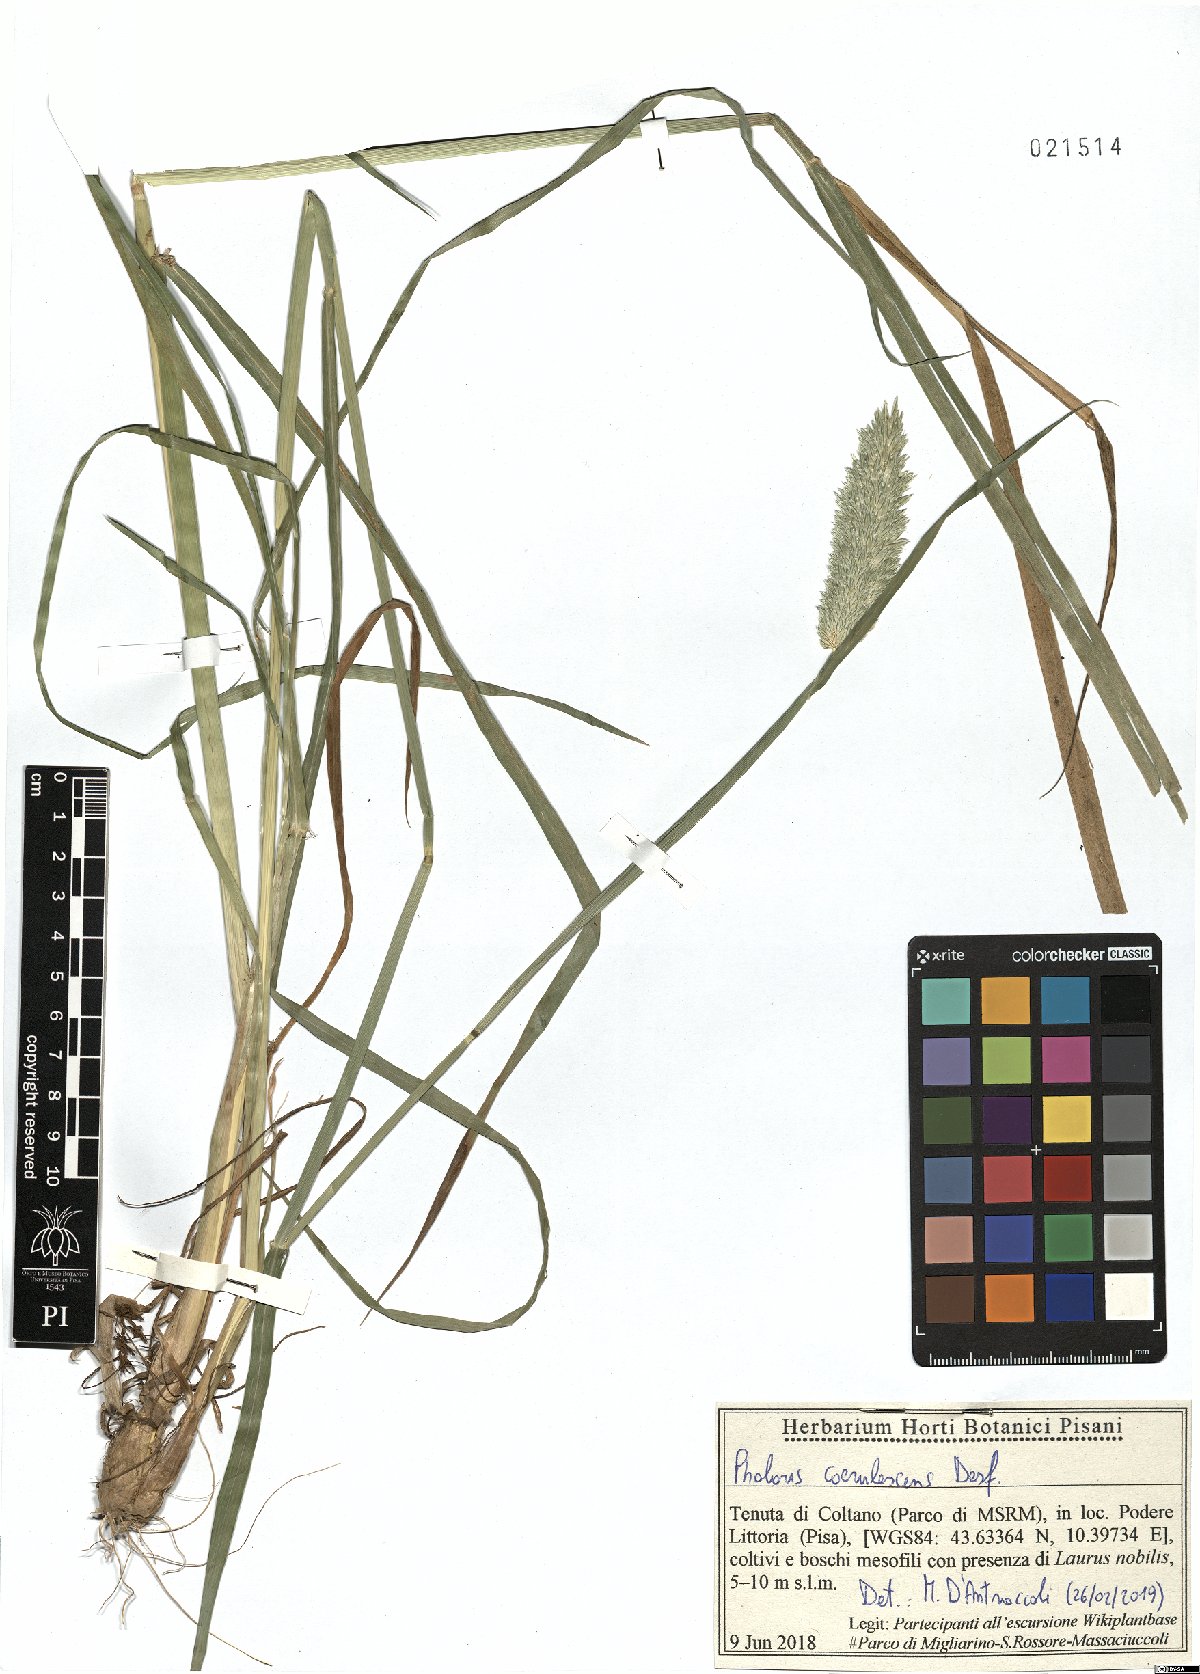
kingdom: Plantae
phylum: Tracheophyta
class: Liliopsida
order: Poales
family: Poaceae
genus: Phalaris
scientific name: Phalaris coerulescens
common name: Sunolgrass
